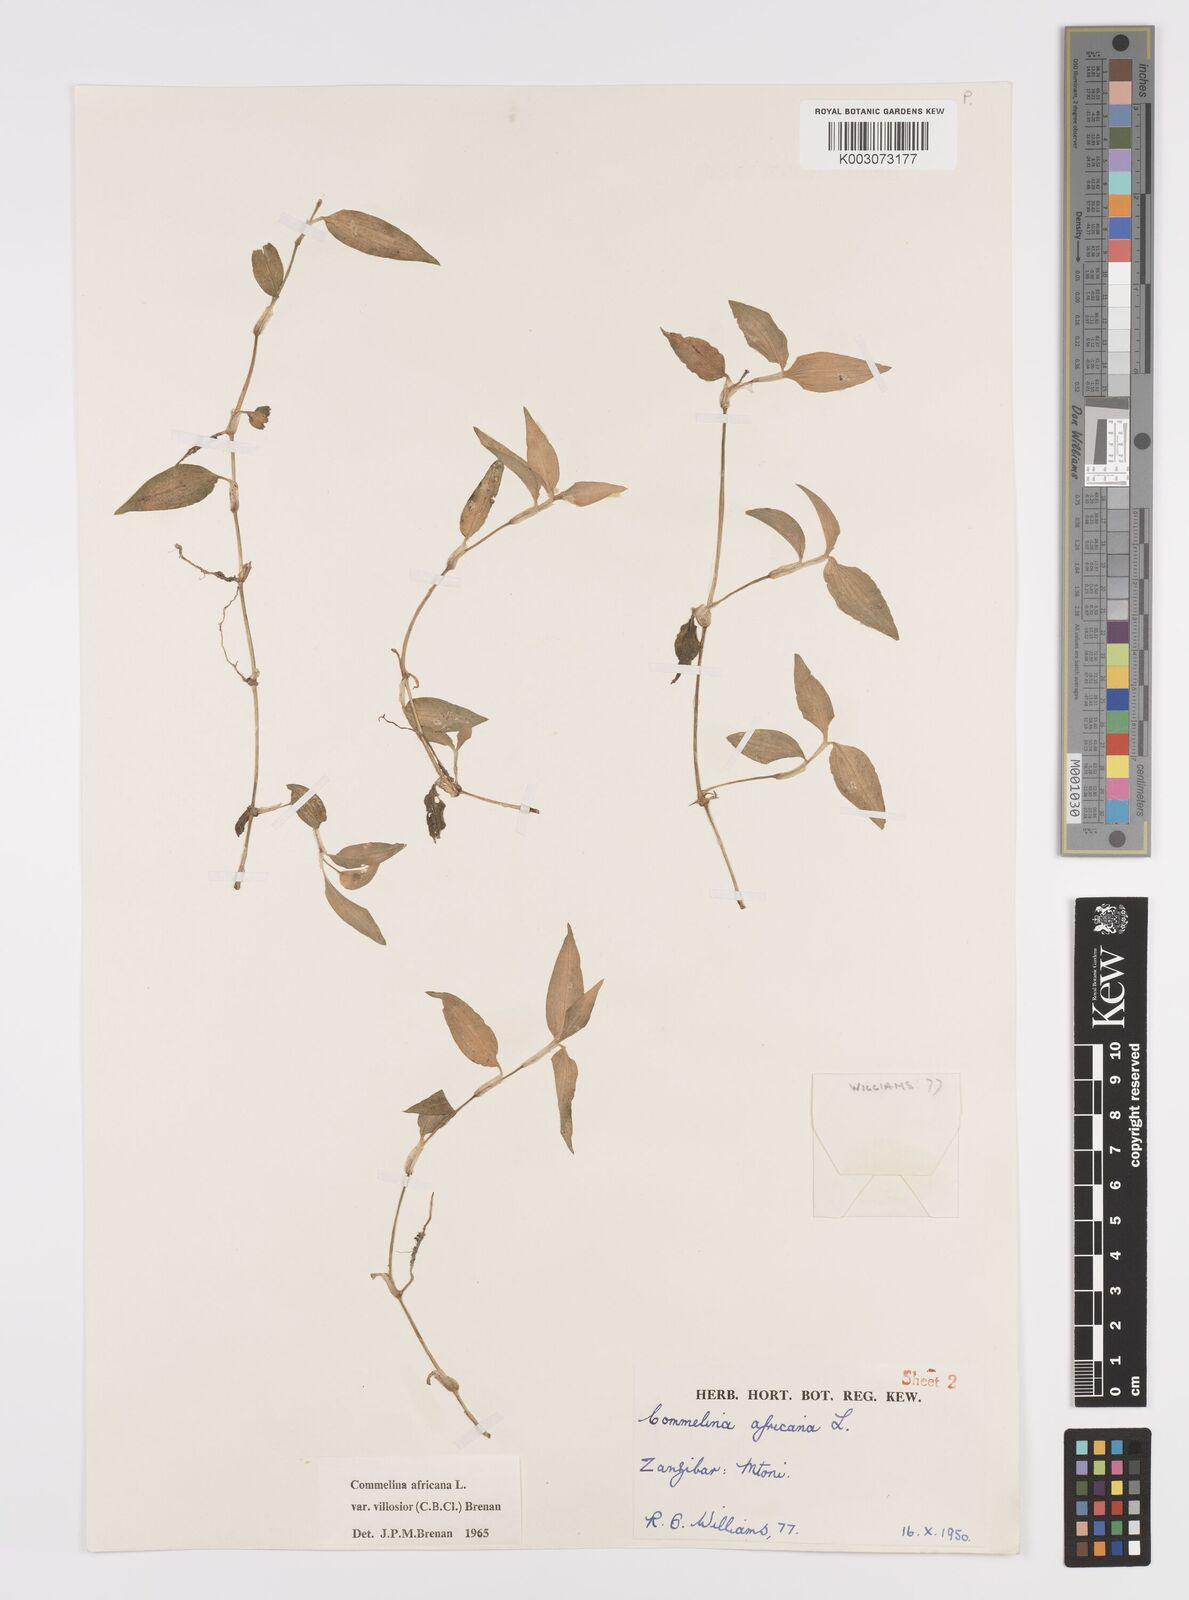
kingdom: Plantae
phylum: Tracheophyta
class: Liliopsida
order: Commelinales
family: Commelinaceae
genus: Commelina
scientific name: Commelina africana
